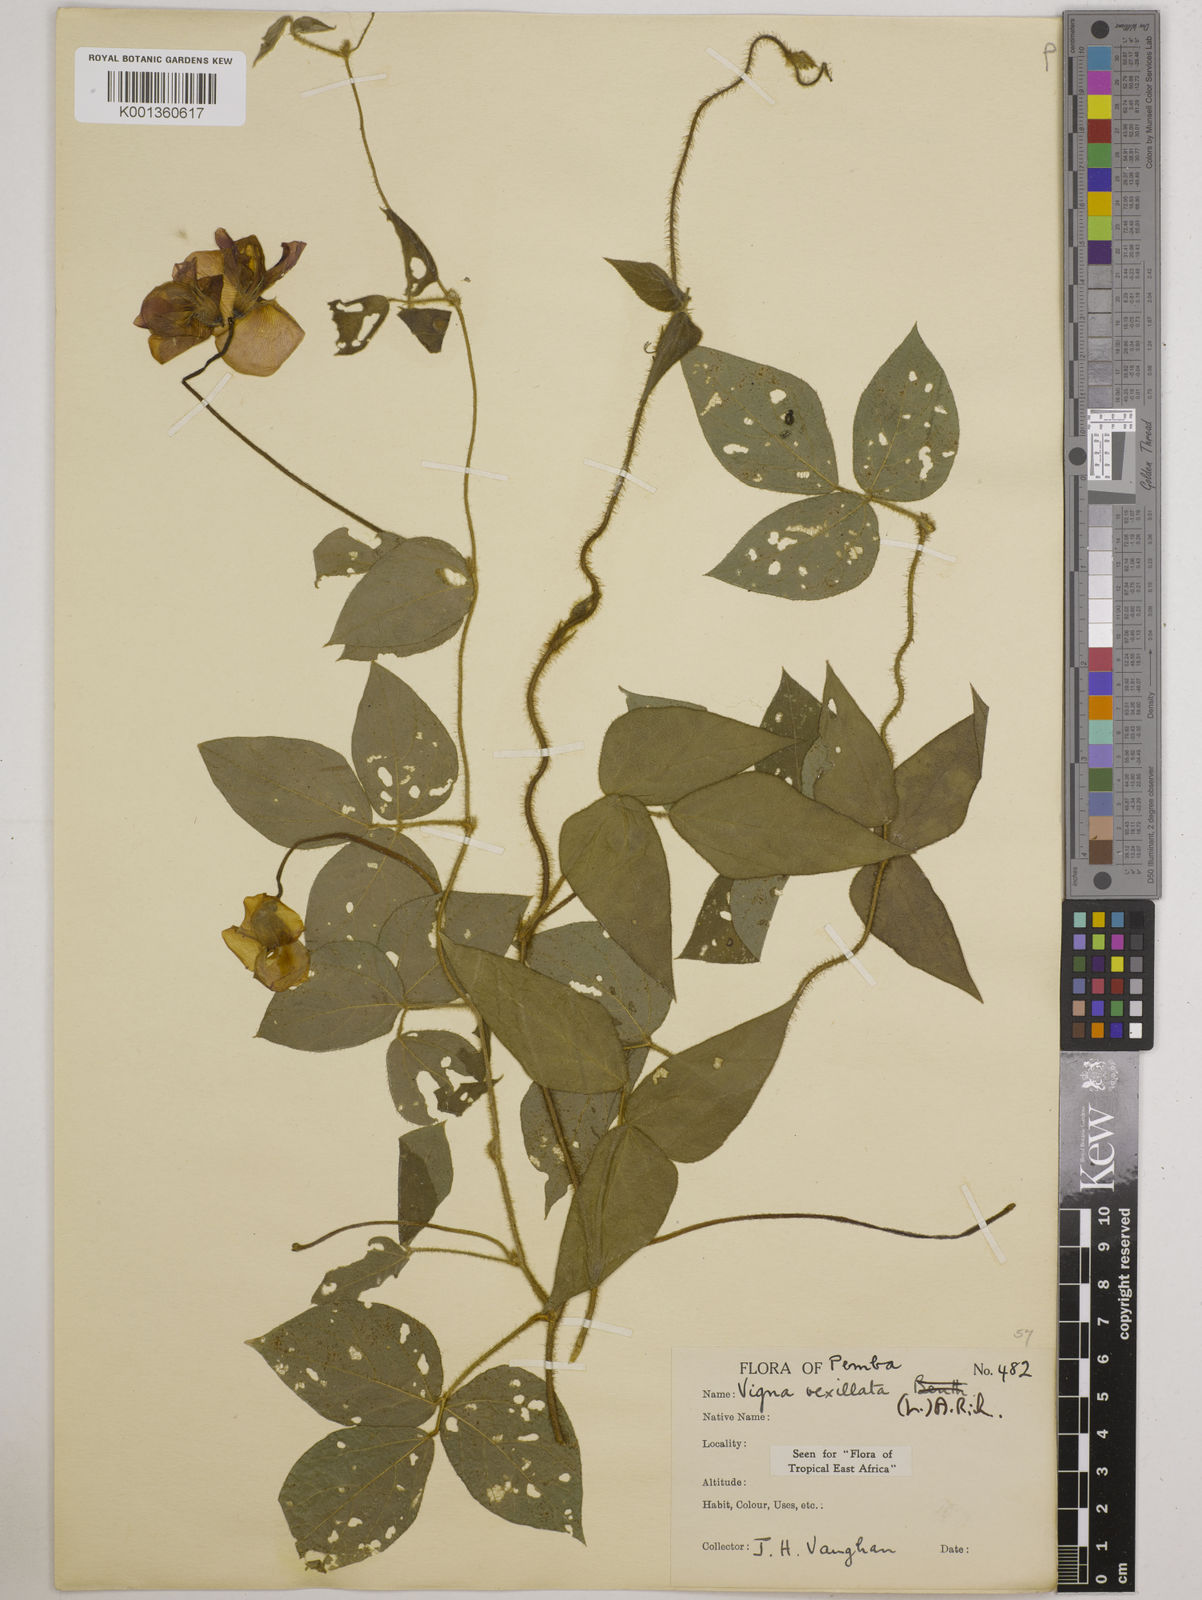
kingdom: Plantae
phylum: Tracheophyta
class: Magnoliopsida
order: Fabales
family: Fabaceae
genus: Vigna
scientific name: Vigna vexillata
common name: Zombi pea
